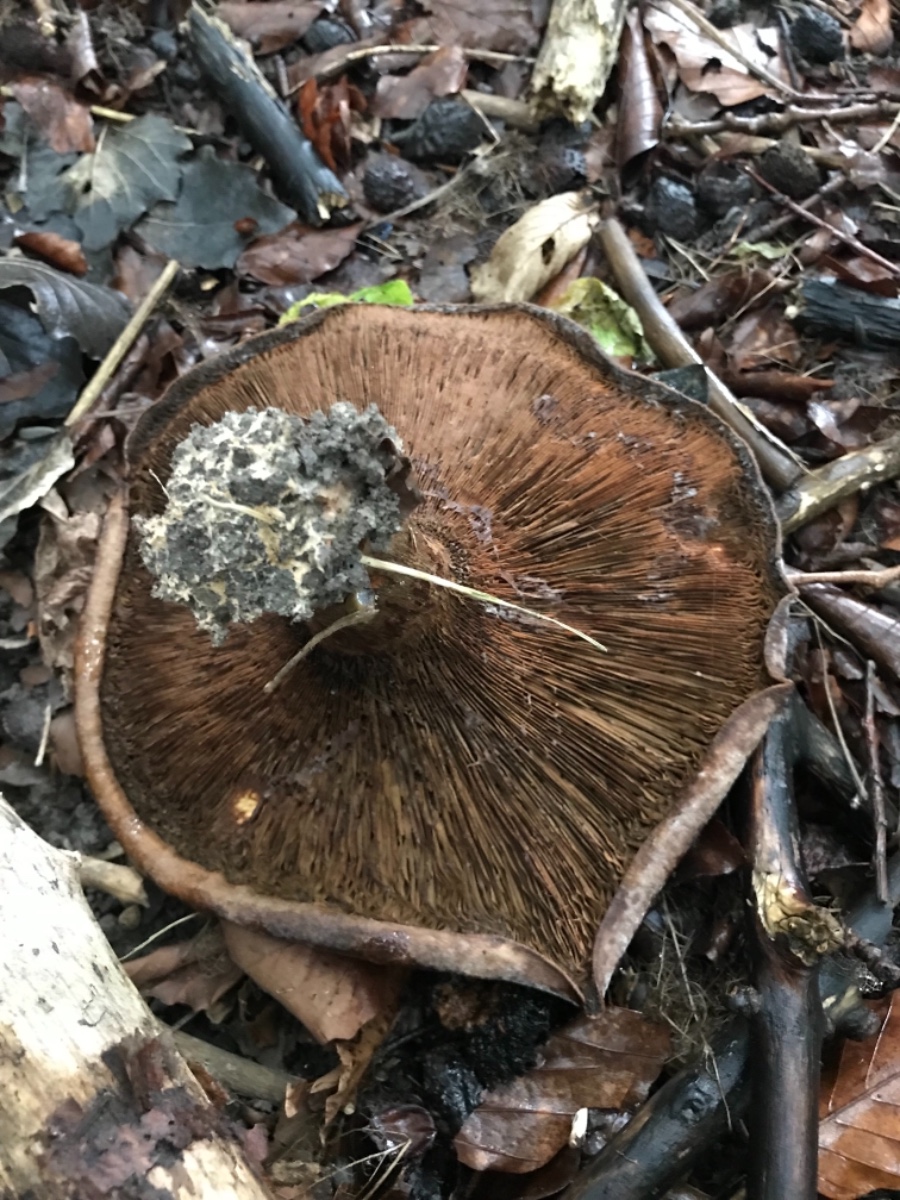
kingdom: Fungi
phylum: Basidiomycota
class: Agaricomycetes
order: Boletales
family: Paxillaceae
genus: Paxillus
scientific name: Paxillus
